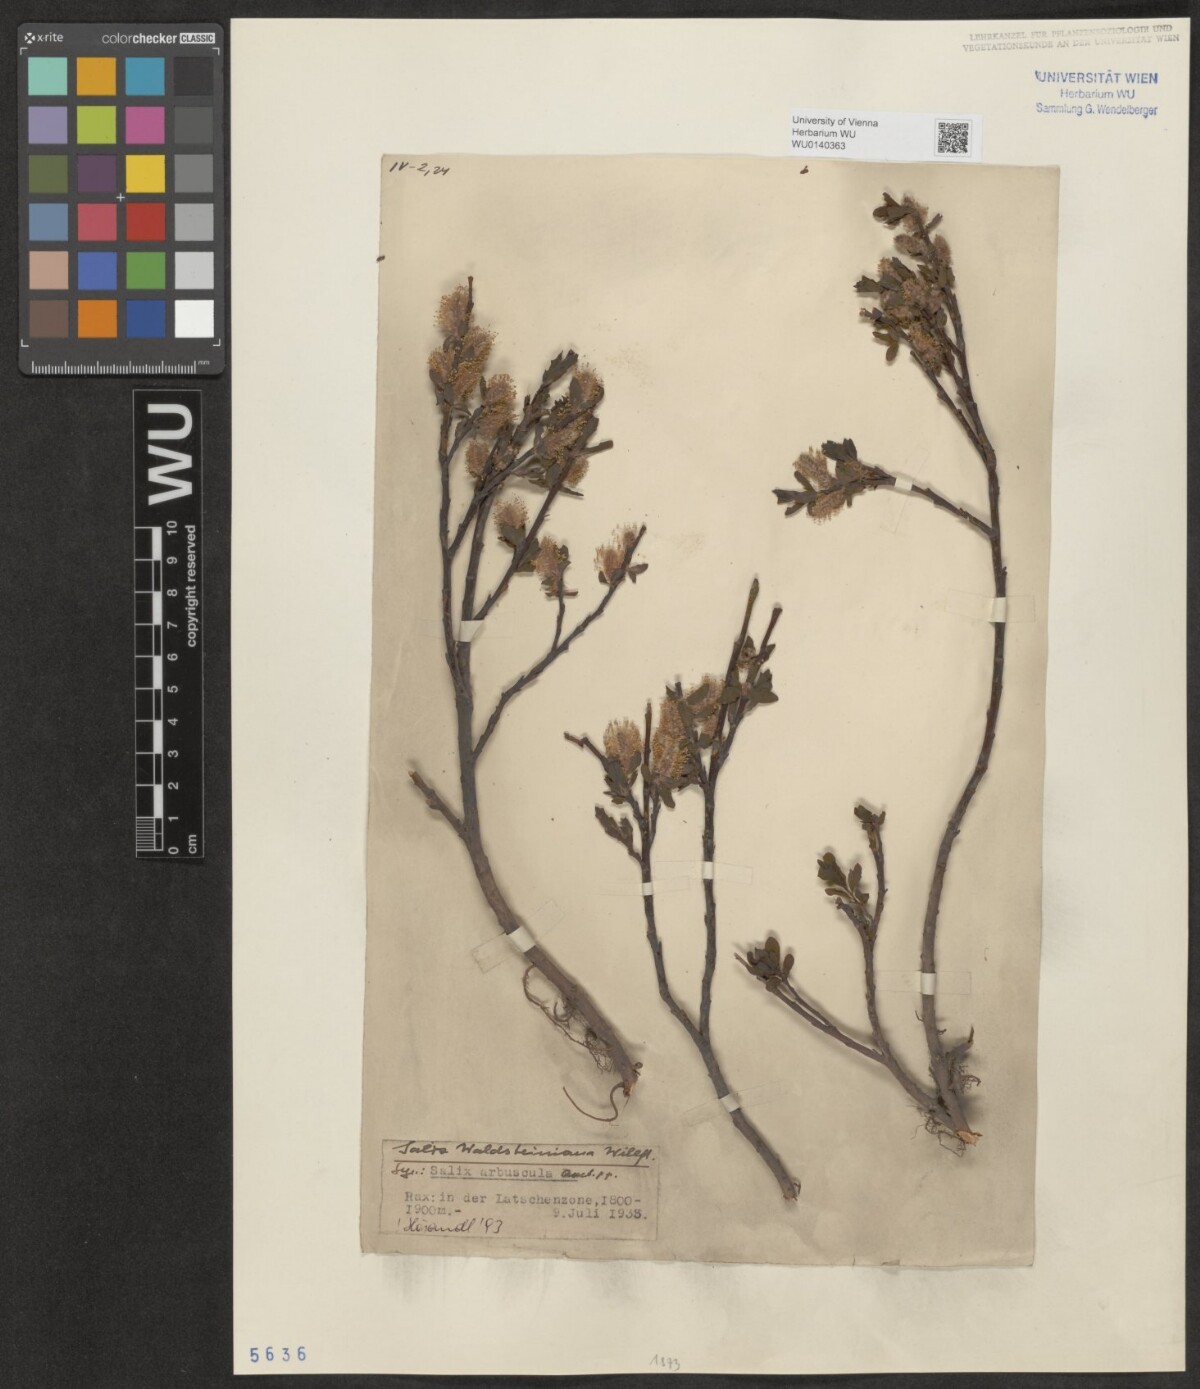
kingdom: Plantae
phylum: Tracheophyta
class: Magnoliopsida
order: Malpighiales
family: Salicaceae
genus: Salix
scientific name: Salix waldsteiniana
